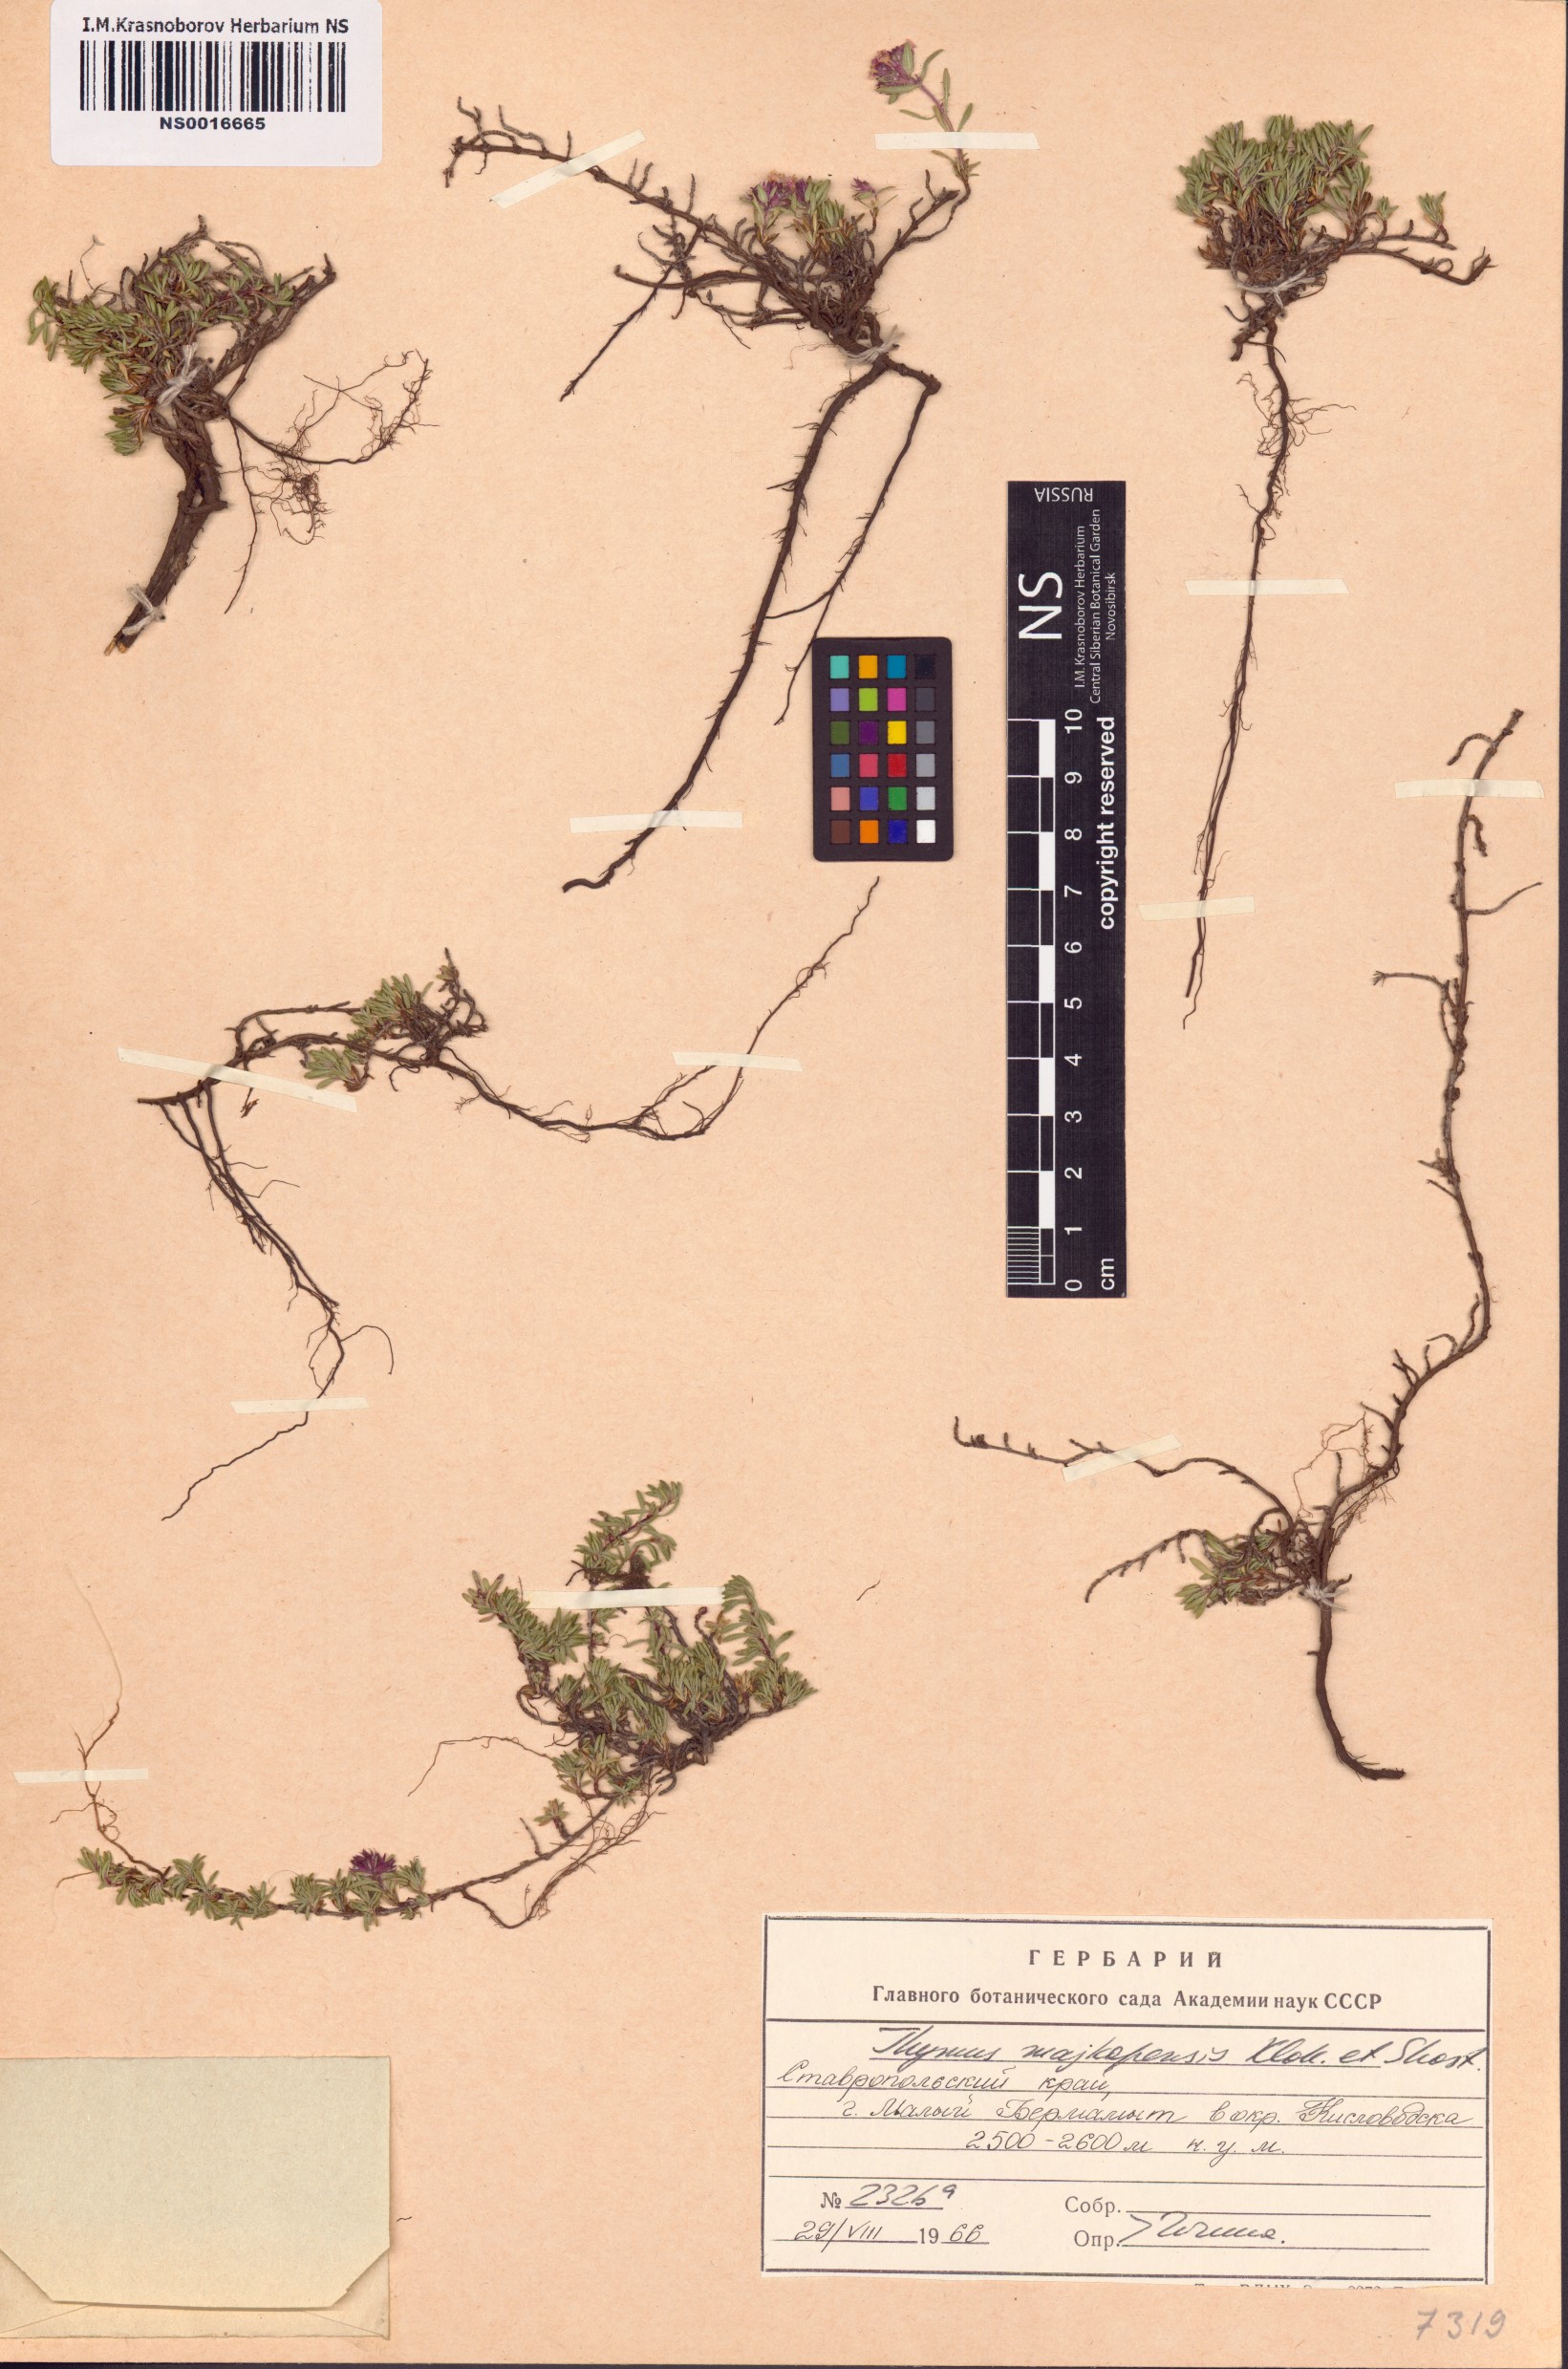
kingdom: Plantae
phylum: Tracheophyta
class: Magnoliopsida
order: Lamiales
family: Lamiaceae
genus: Thymus
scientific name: Thymus majkopiensis
